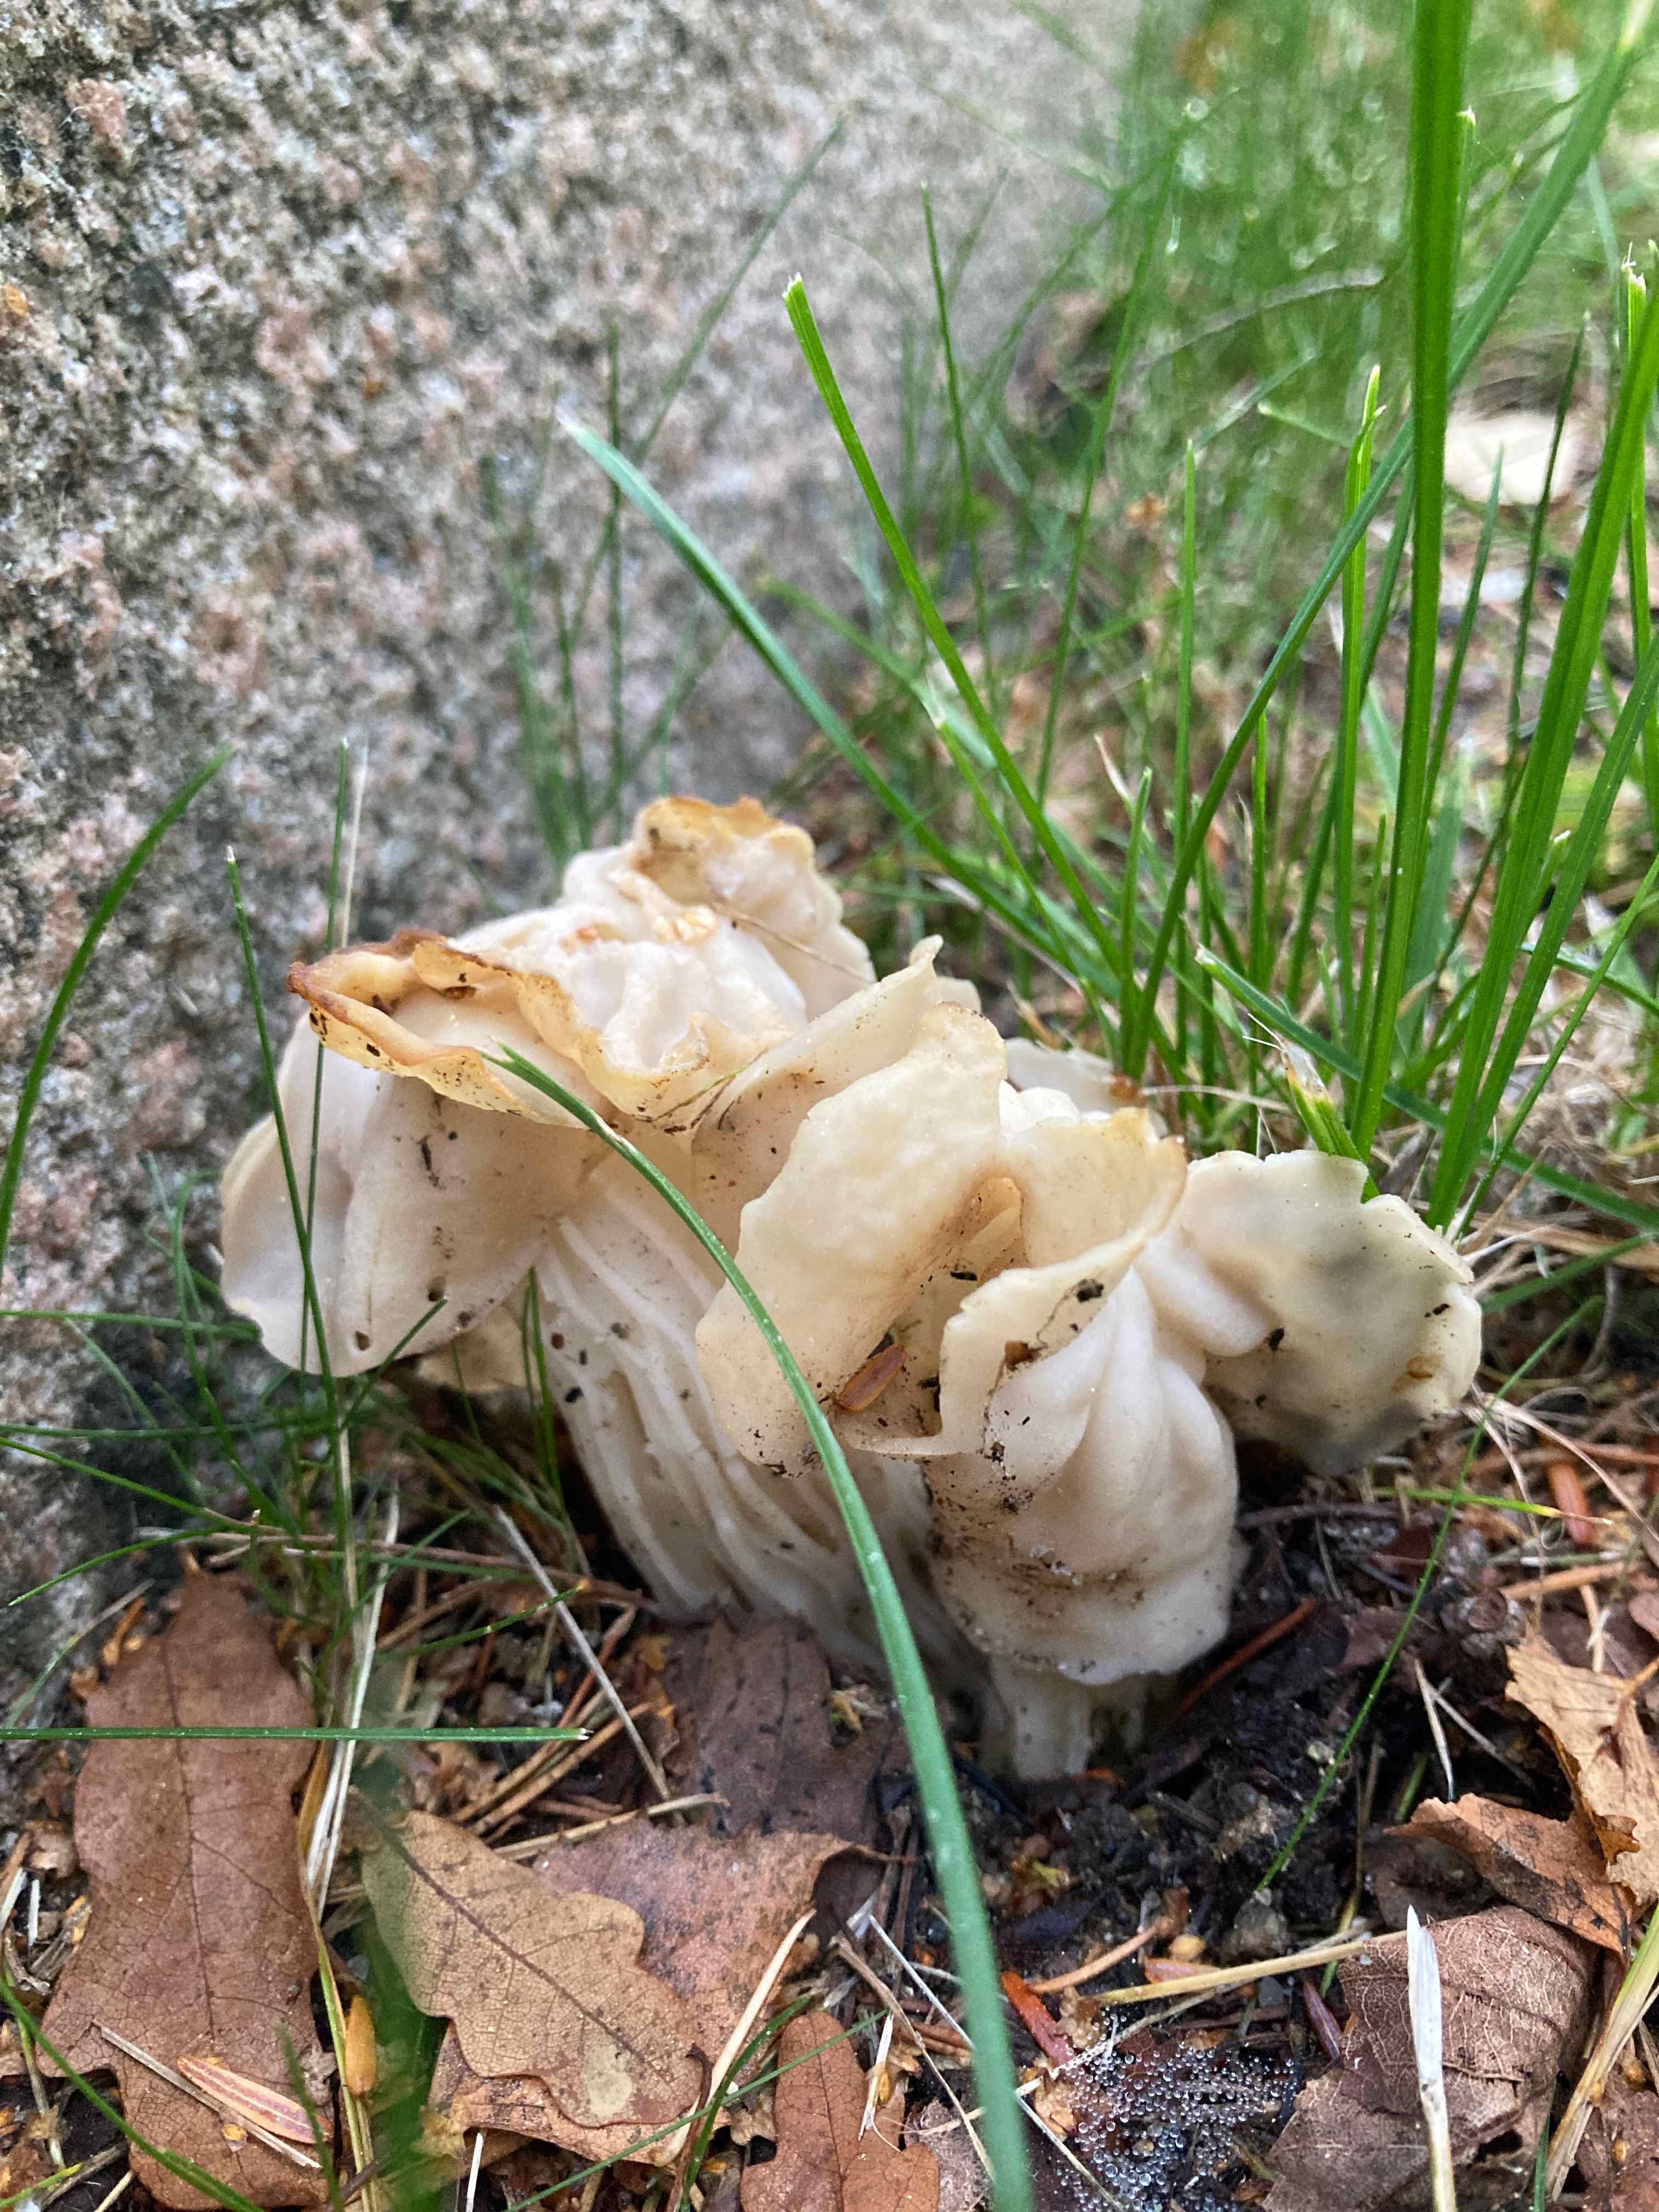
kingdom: Fungi
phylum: Ascomycota
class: Pezizomycetes
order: Pezizales
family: Helvellaceae
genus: Helvella
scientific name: Helvella crispa
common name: kruset foldhat
